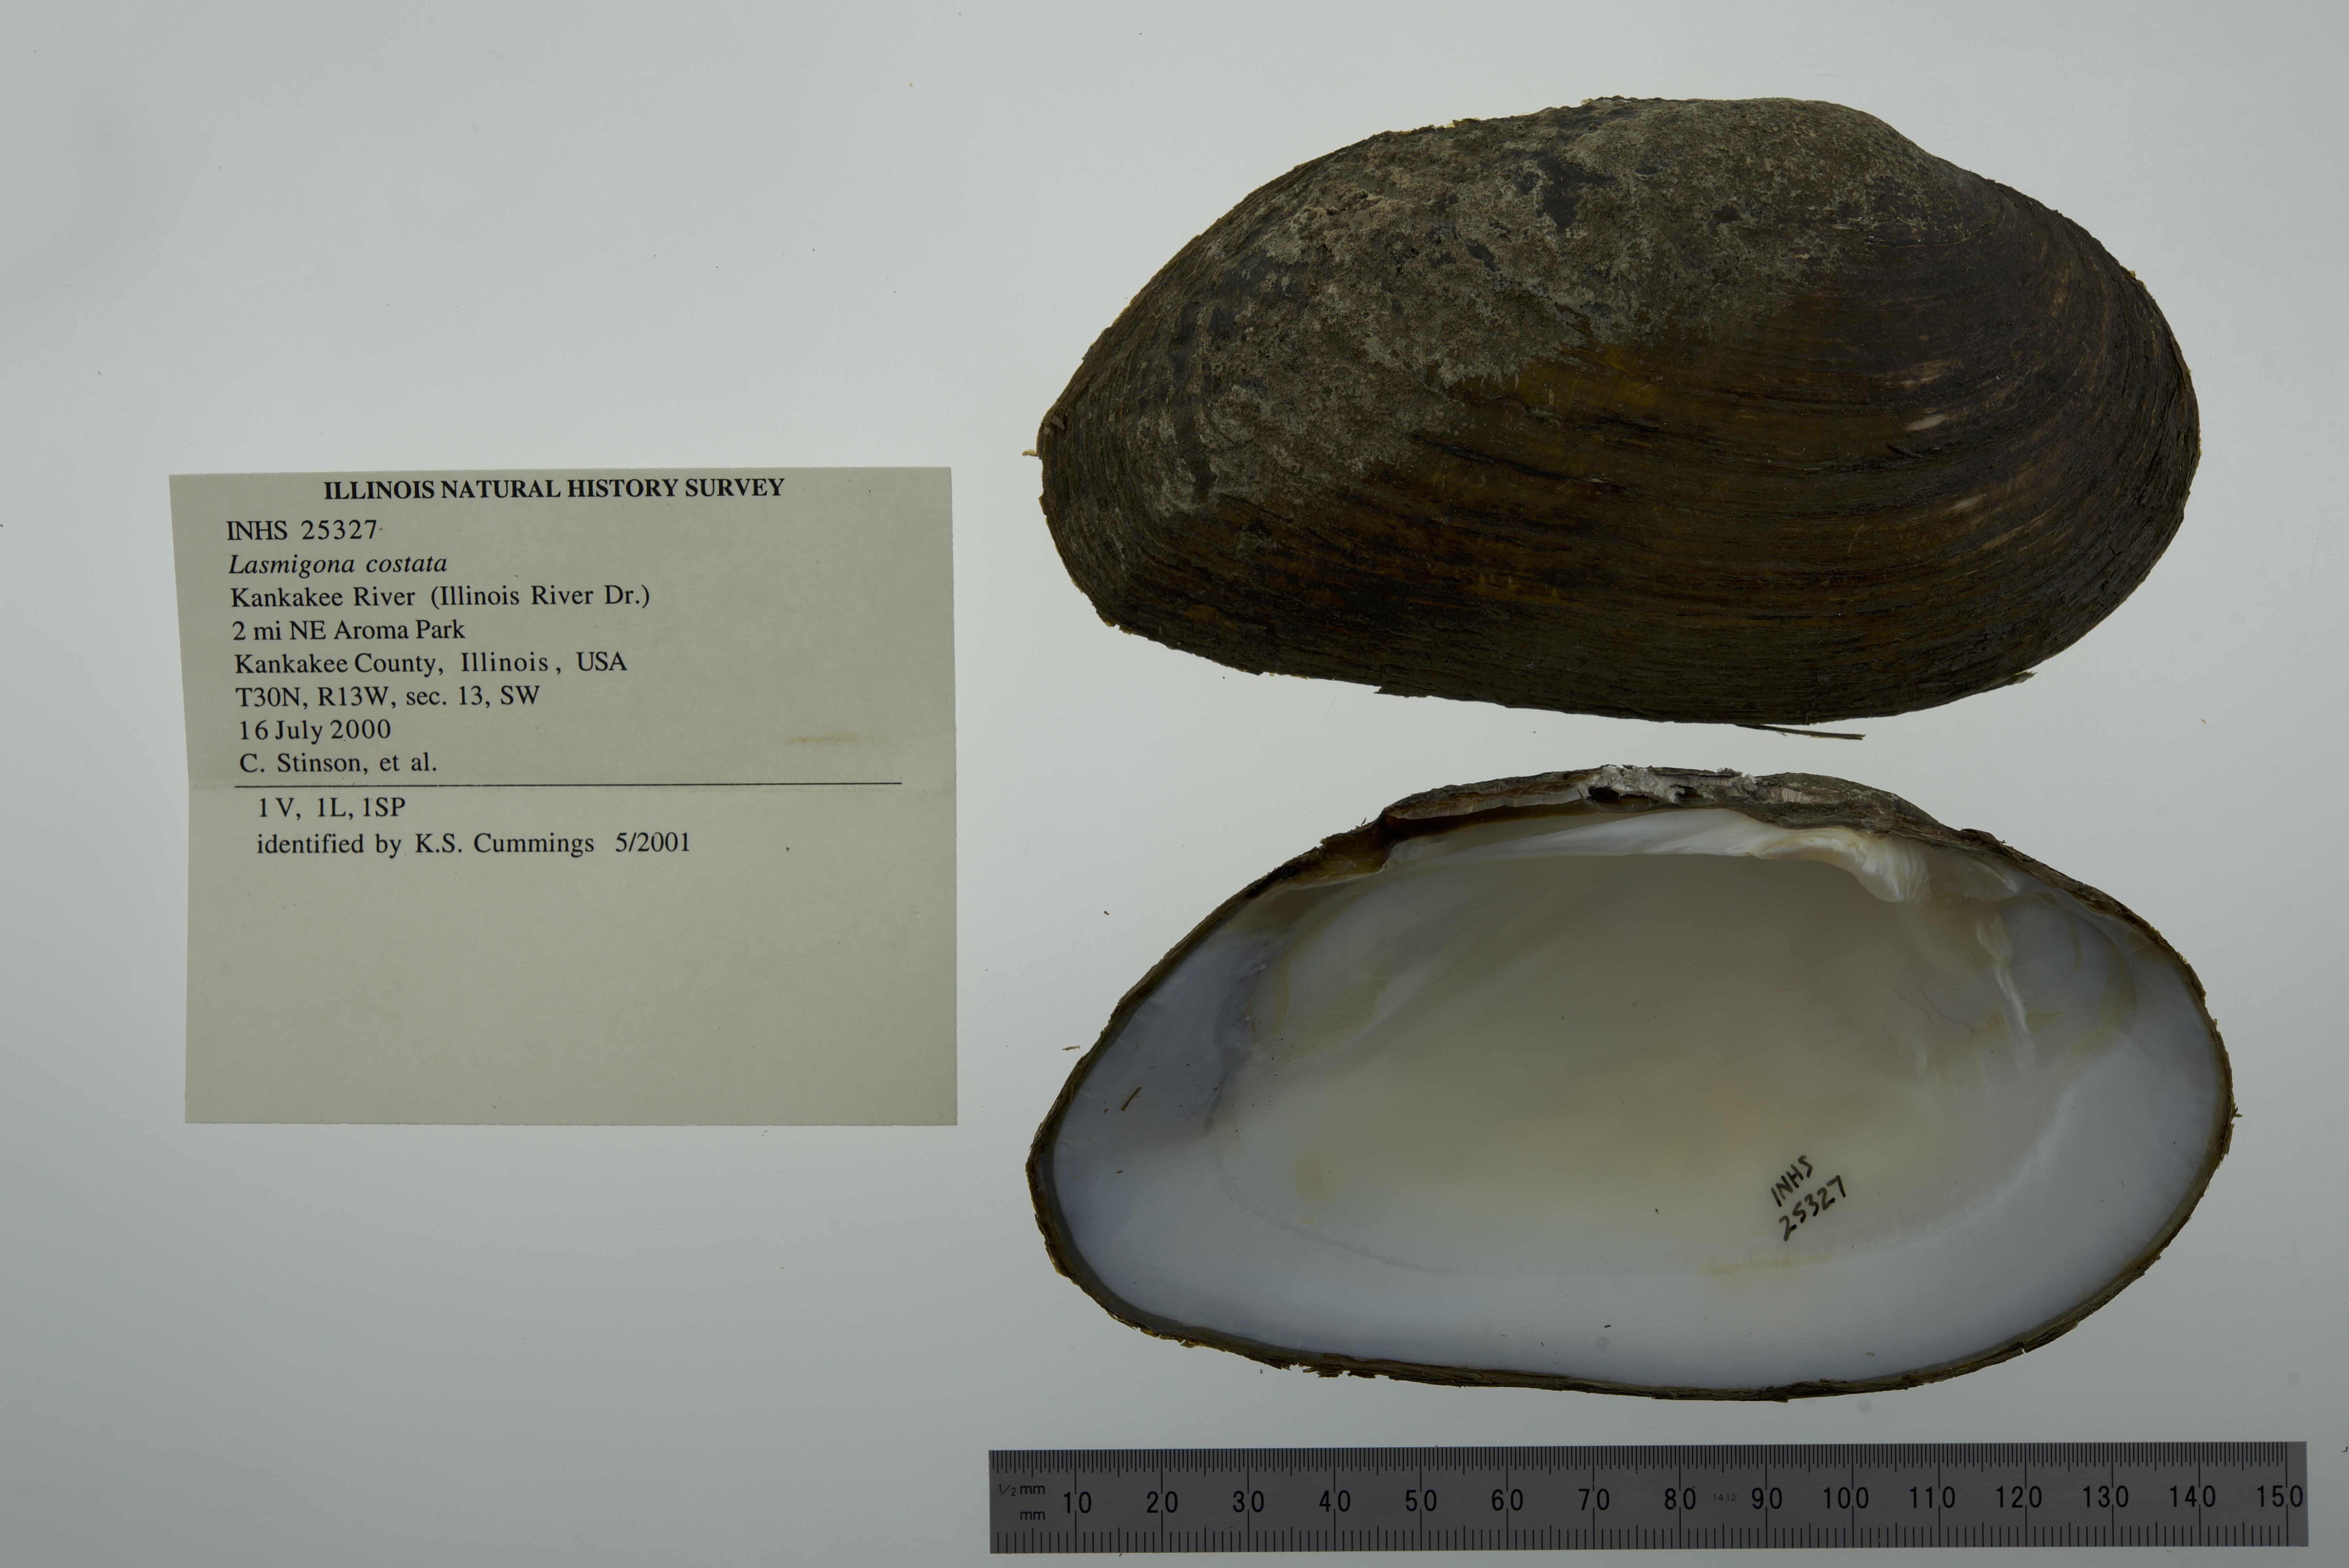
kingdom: Animalia
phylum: Mollusca
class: Bivalvia
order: Unionida
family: Unionidae
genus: Lasmigona
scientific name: Lasmigona costata
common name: Flutedshell
